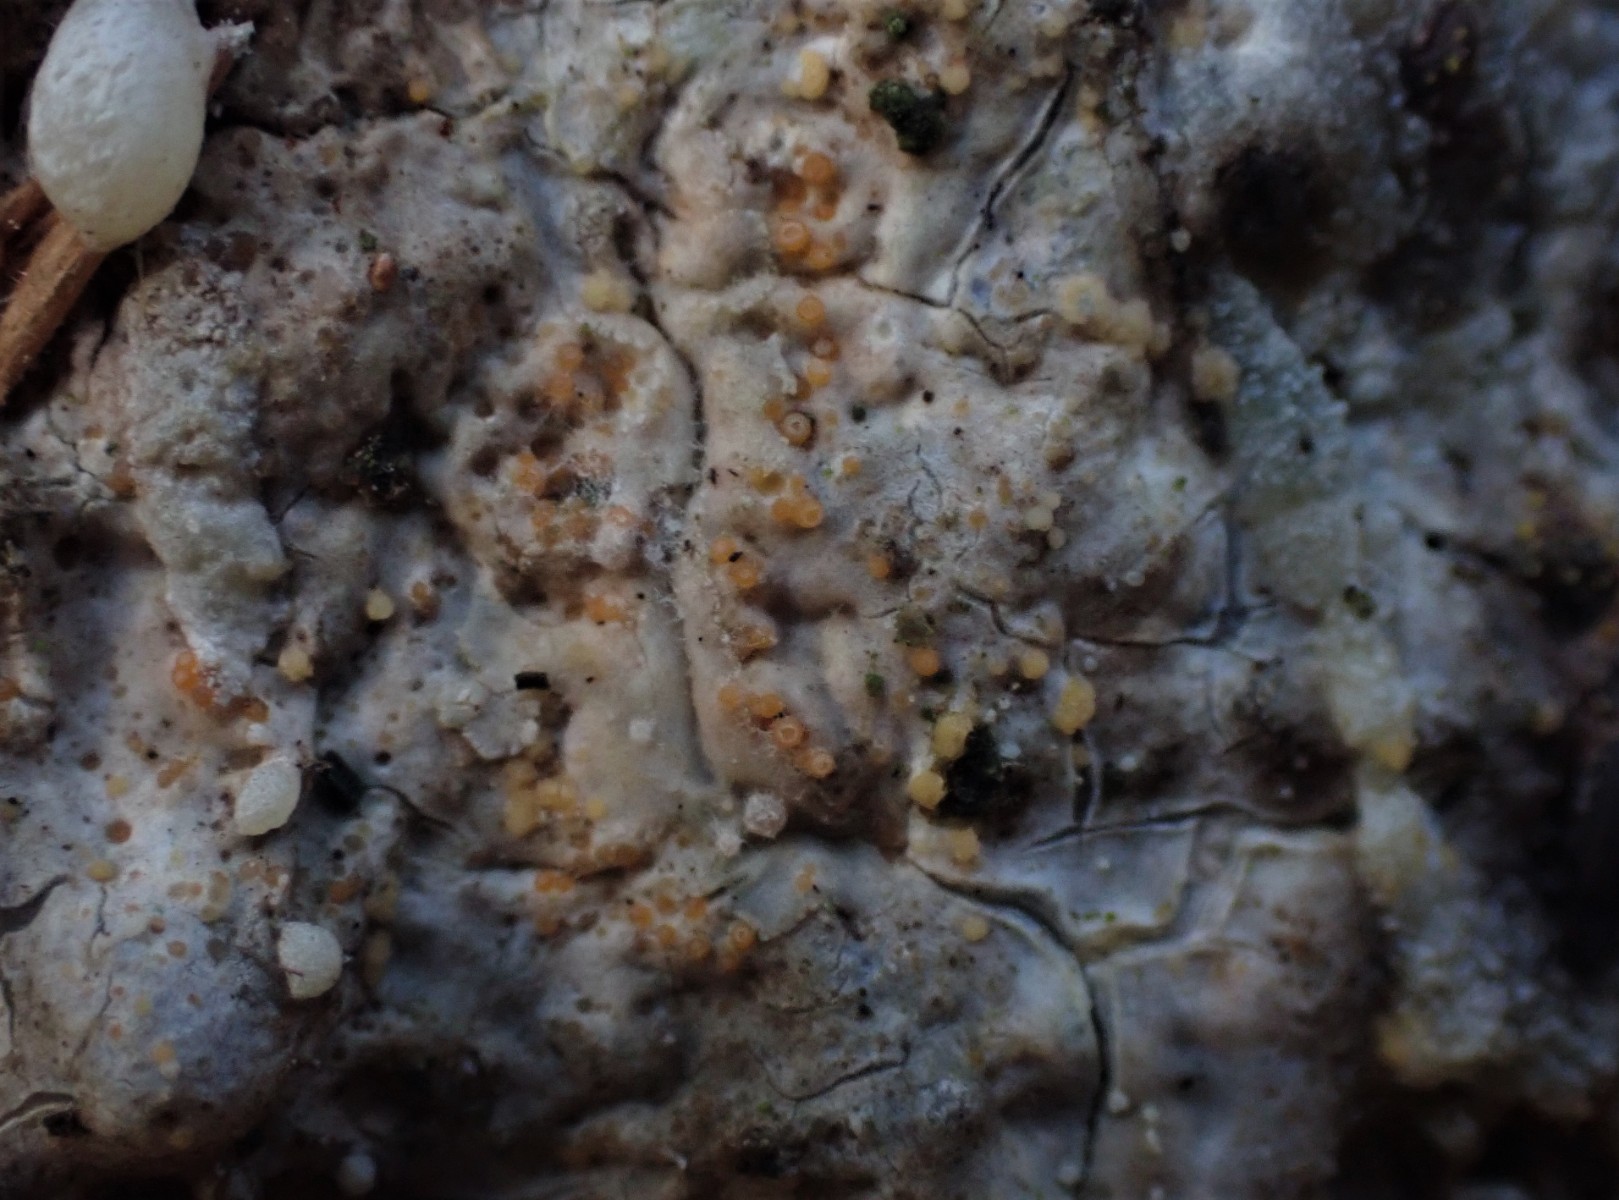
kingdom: Fungi
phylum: Ascomycota
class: Sareomycetes
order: Sareales
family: Sareaceae
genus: Sarea
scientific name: Sarea resinae
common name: orangegul harpiksskive
